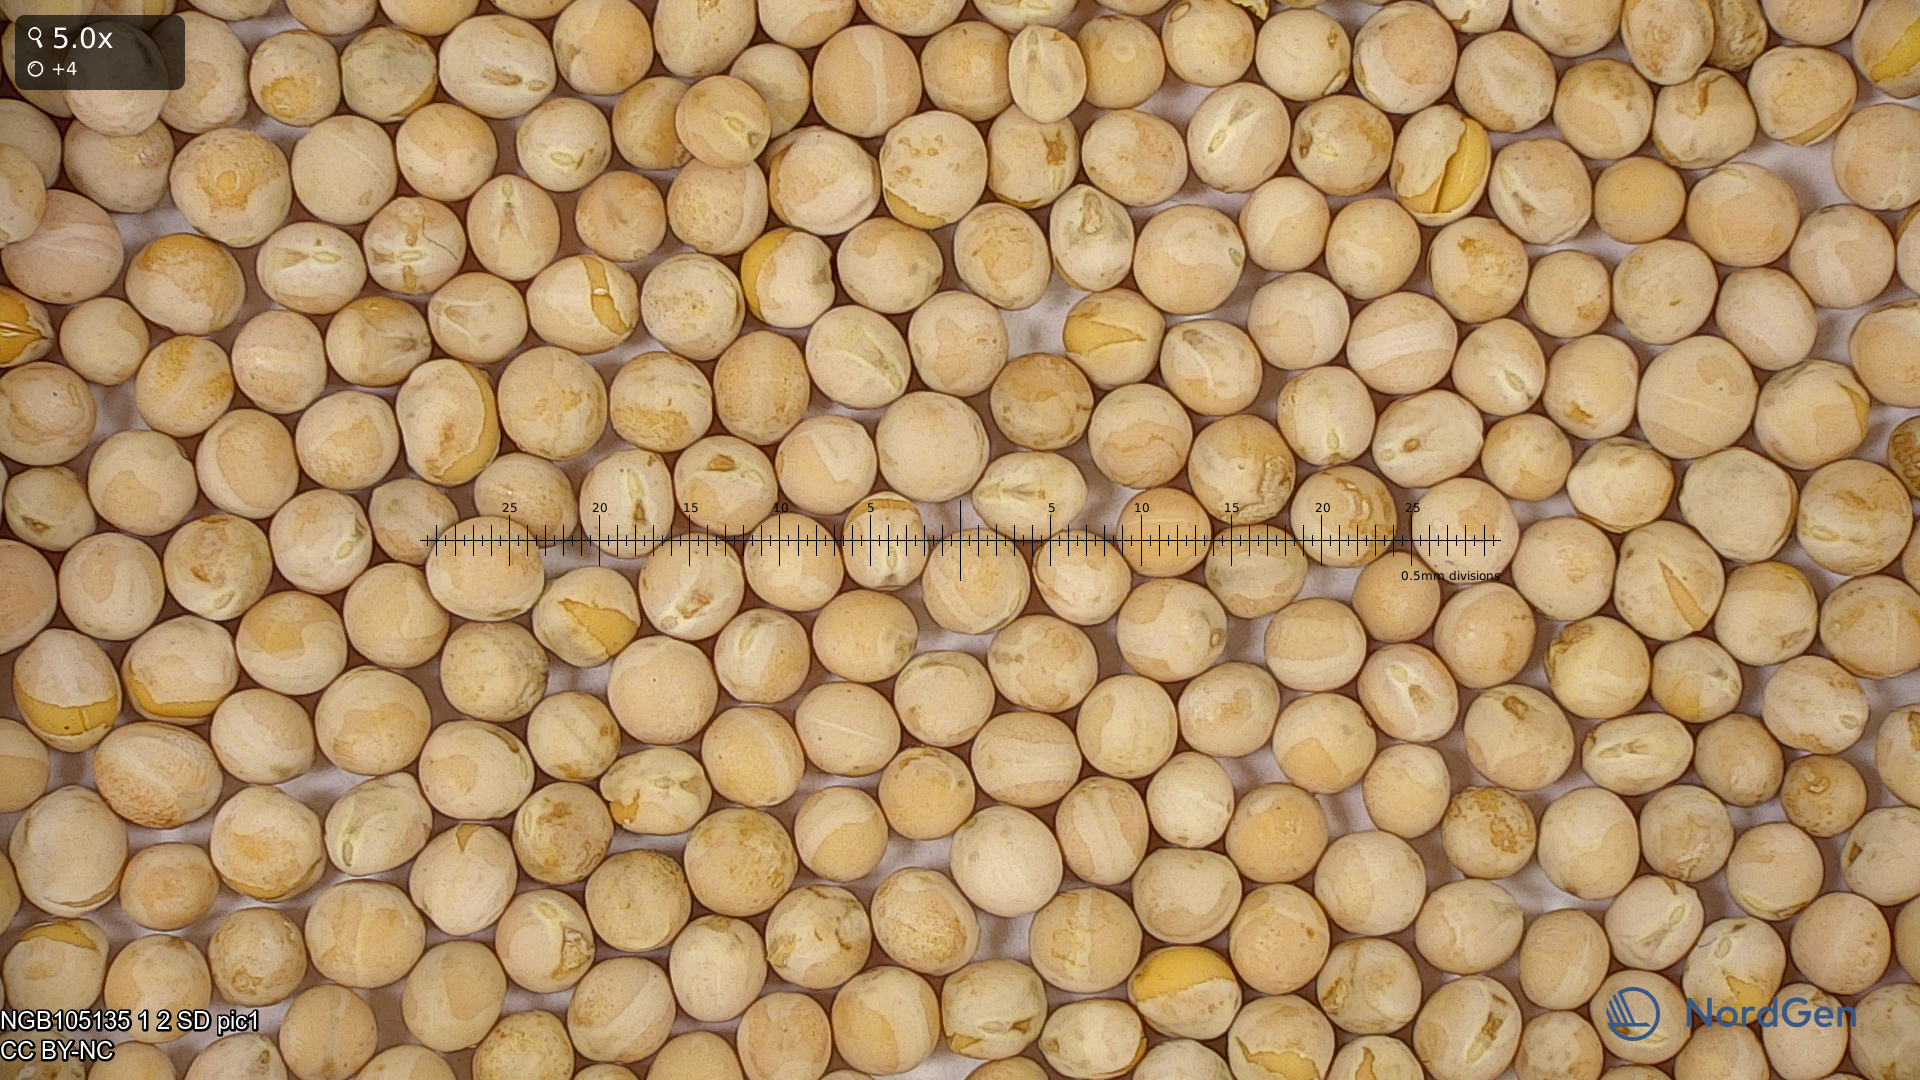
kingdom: Plantae
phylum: Tracheophyta
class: Magnoliopsida
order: Fabales
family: Fabaceae
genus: Lathyrus
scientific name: Lathyrus oleraceus
